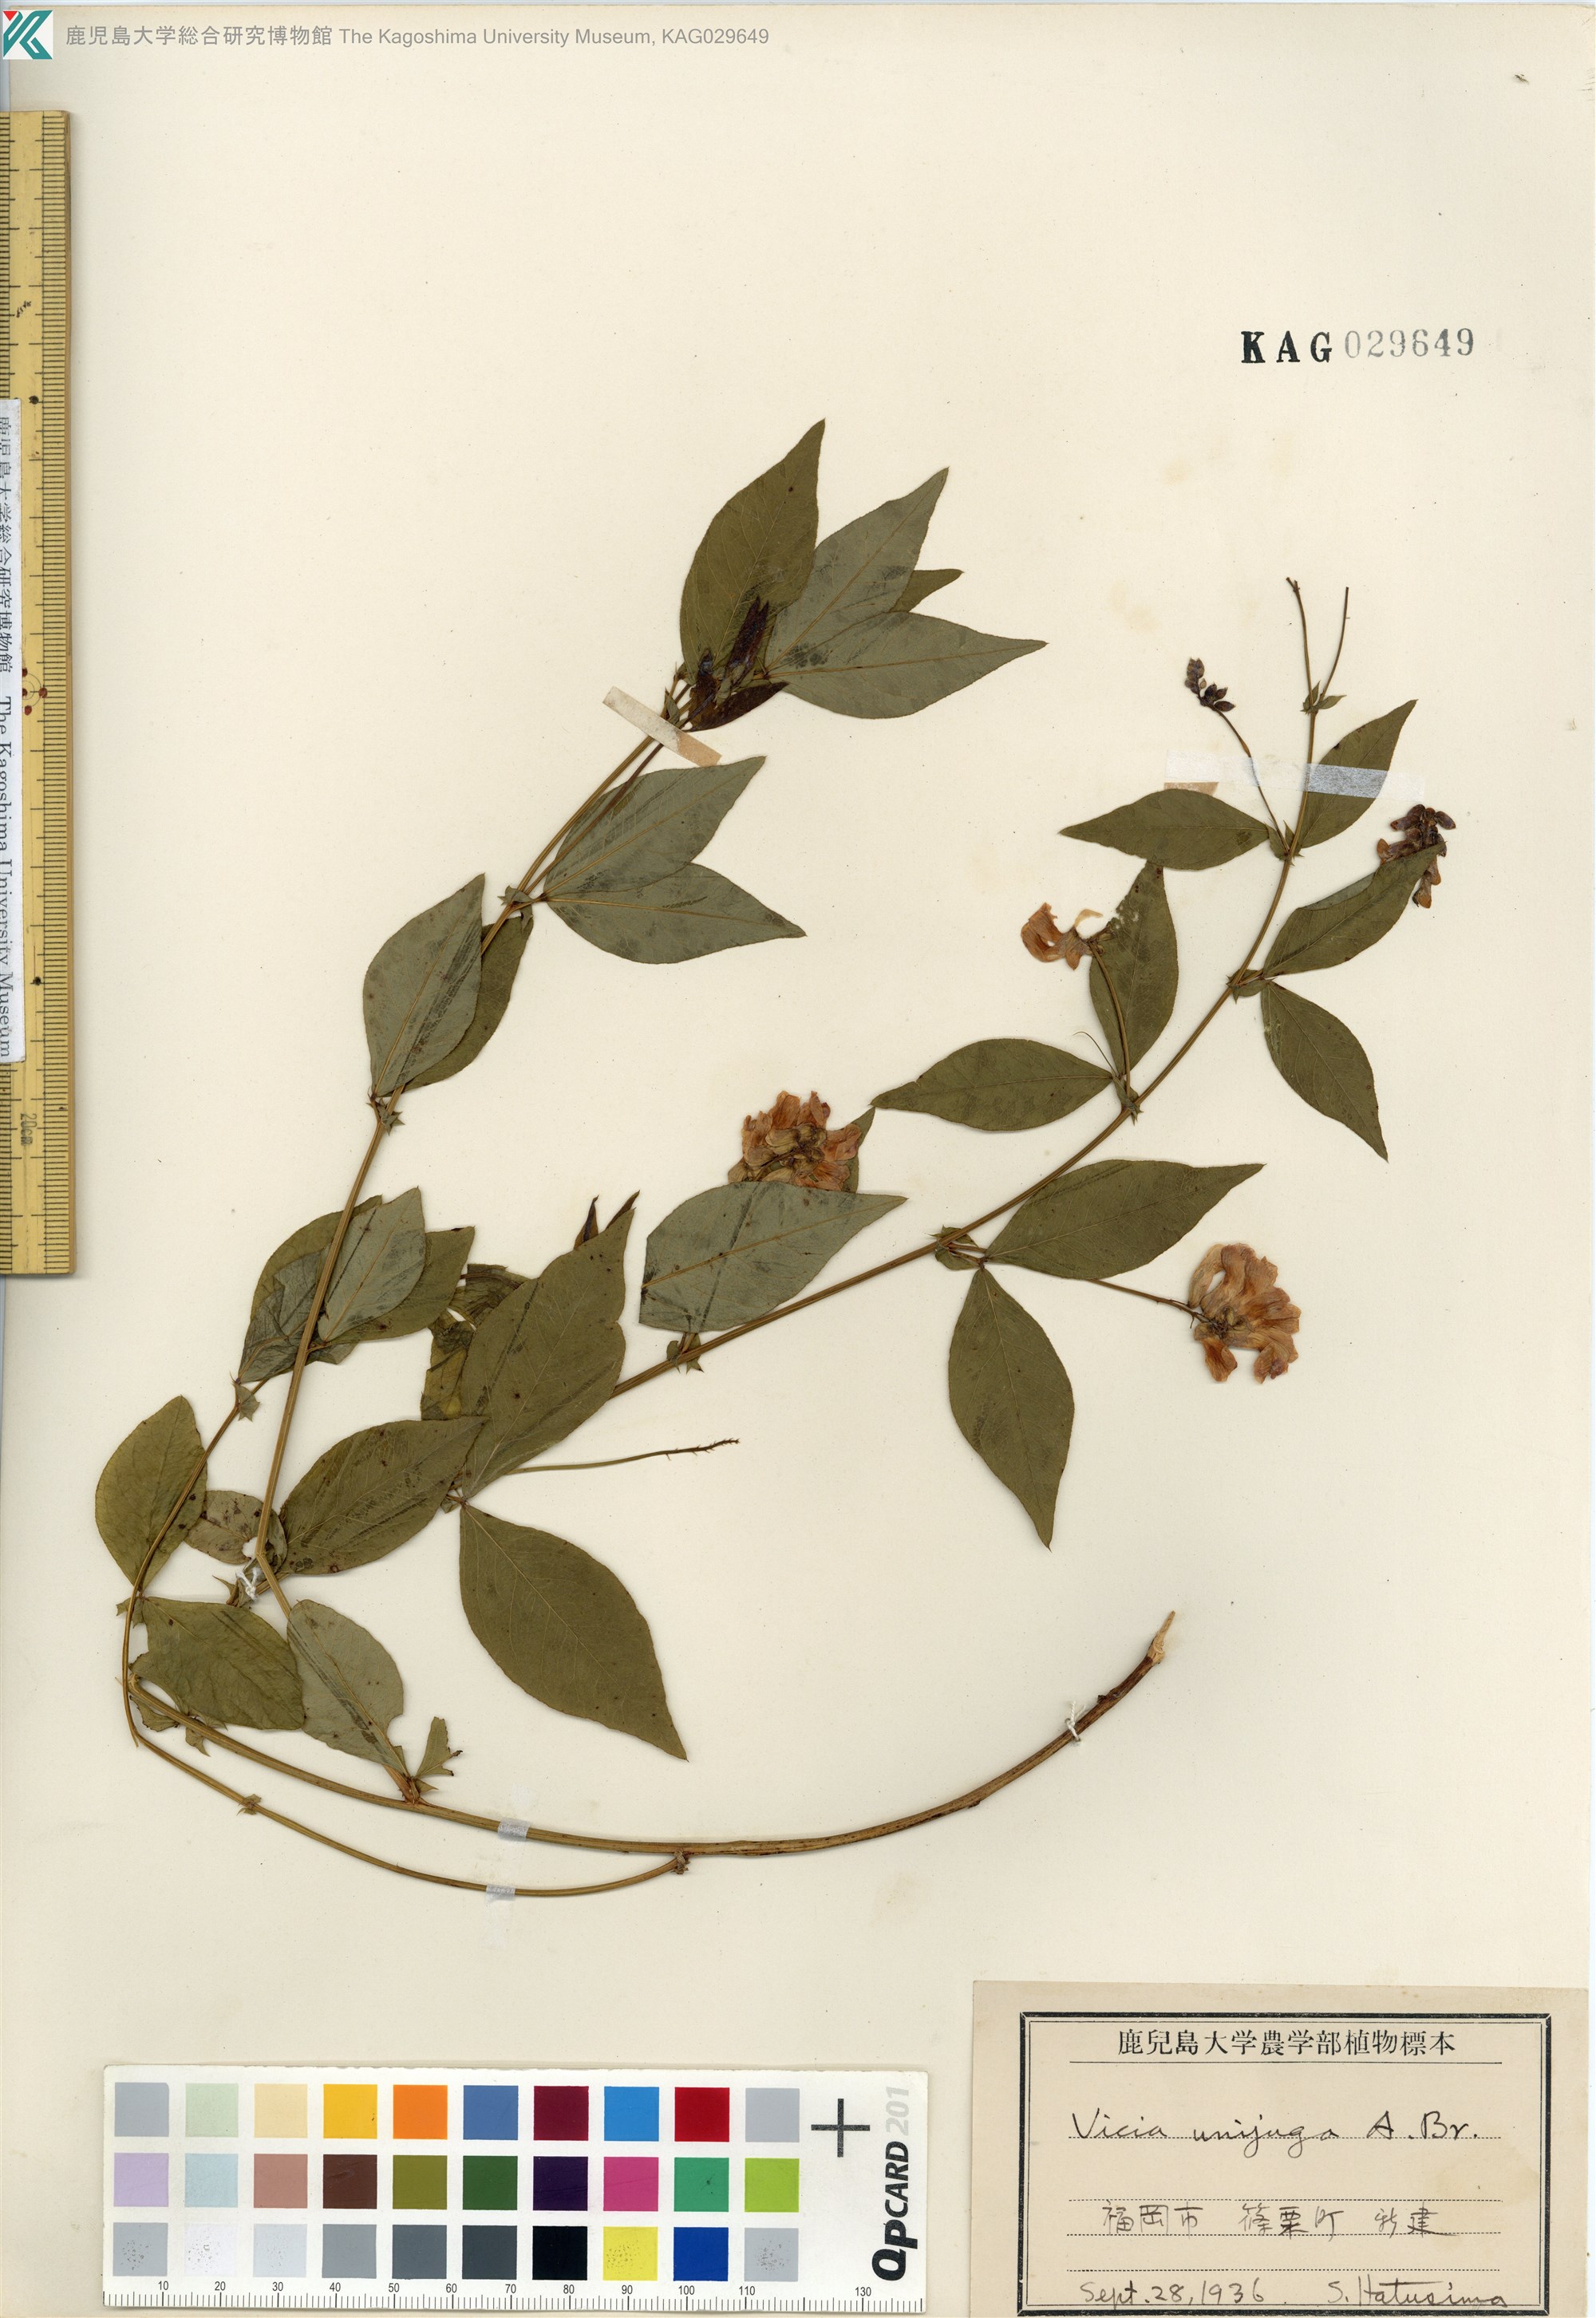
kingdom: Plantae
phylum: Tracheophyta
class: Magnoliopsida
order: Fabales
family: Fabaceae
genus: Vicia
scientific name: Vicia unijuga
